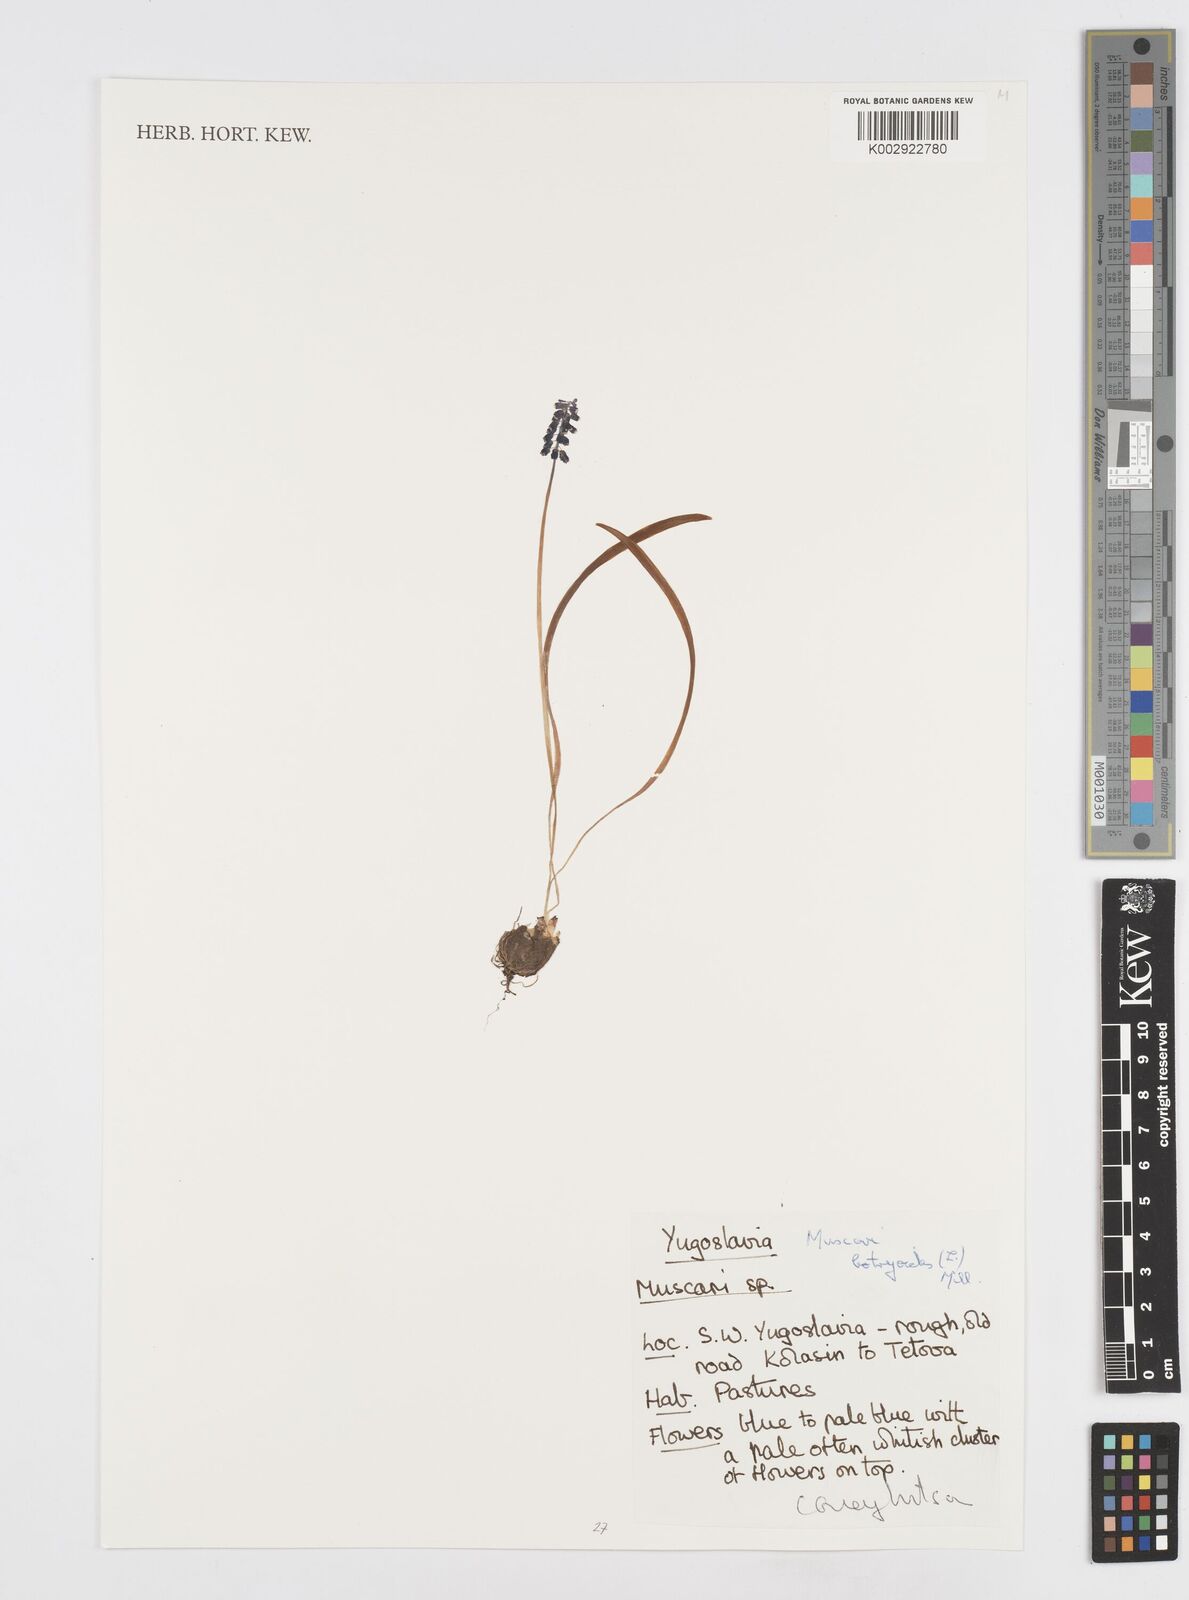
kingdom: Plantae
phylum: Tracheophyta
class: Liliopsida
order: Asparagales
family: Asparagaceae
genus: Muscari
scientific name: Muscari botryoides
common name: Compact grape-hyacinth
